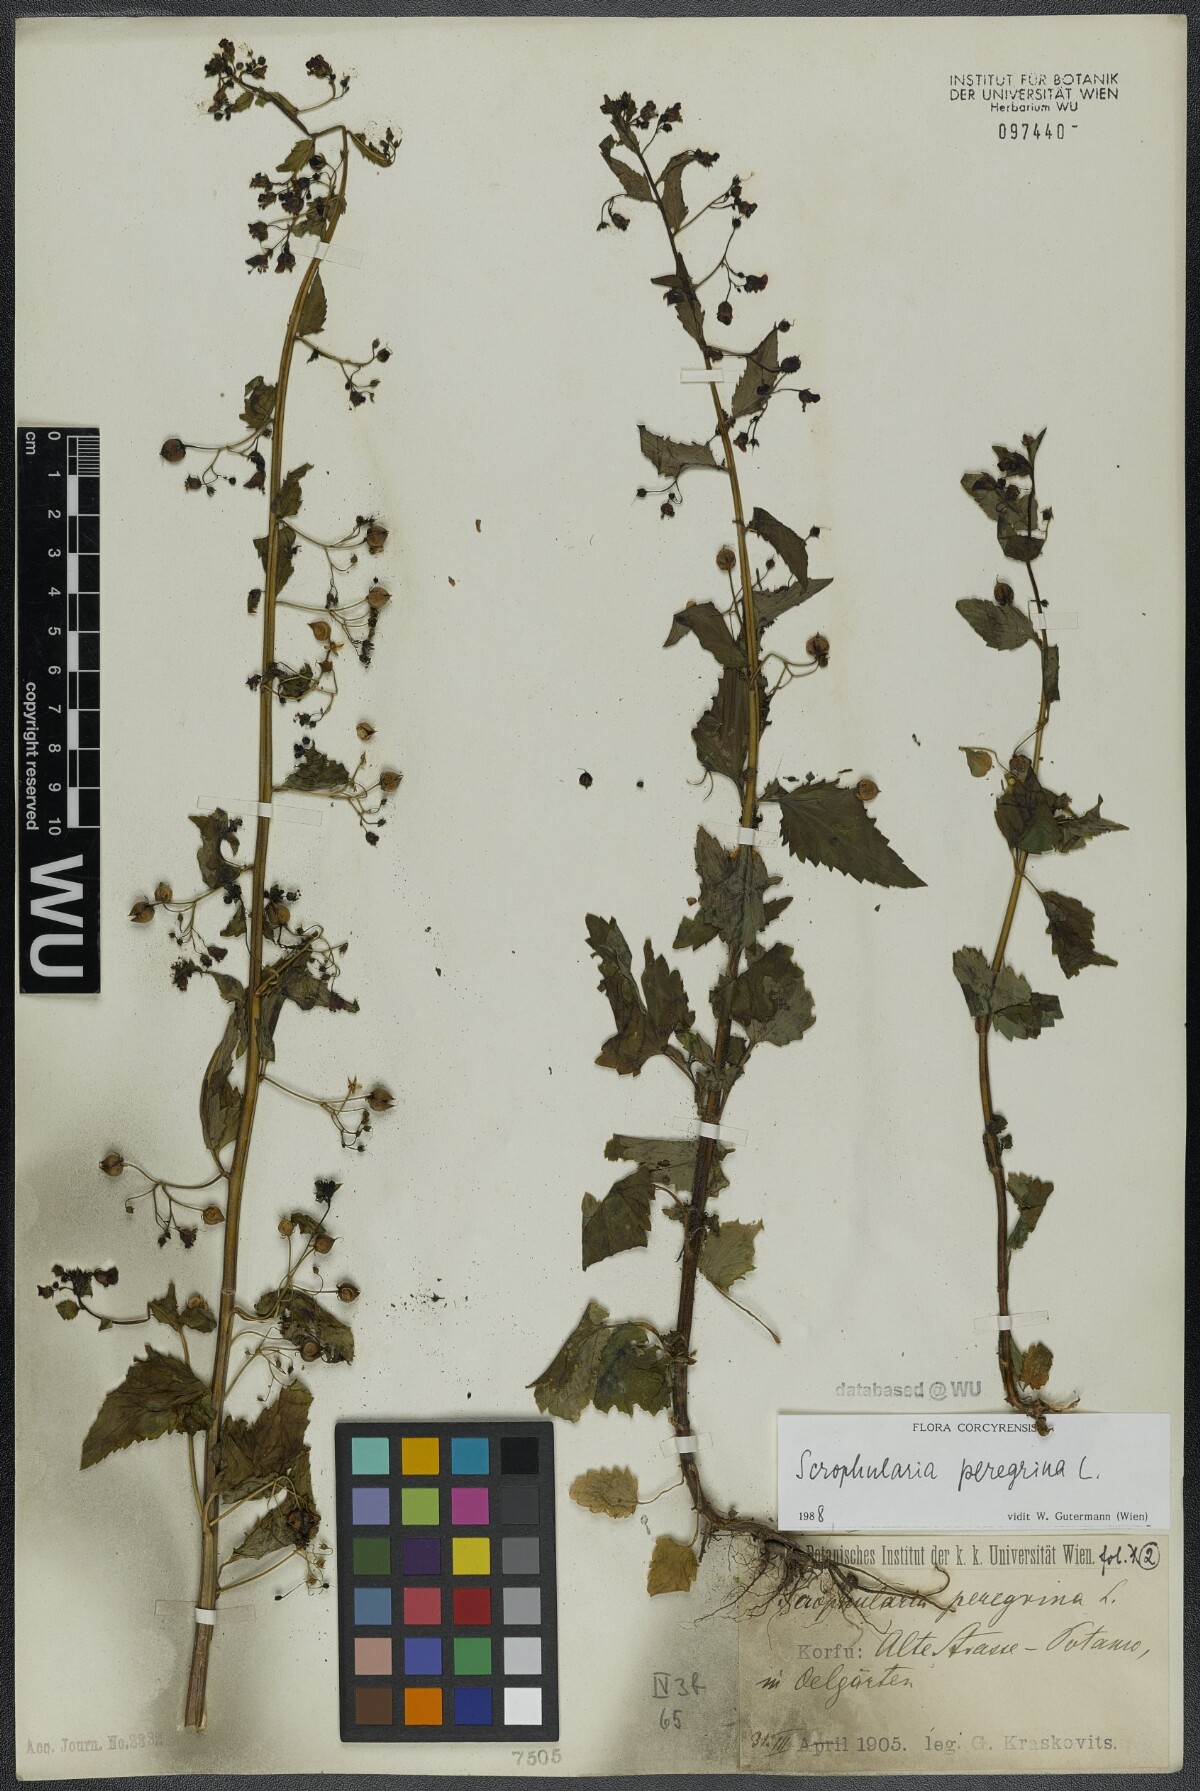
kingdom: Plantae
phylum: Tracheophyta
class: Magnoliopsida
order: Lamiales
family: Scrophulariaceae
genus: Scrophularia
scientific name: Scrophularia peregrina
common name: Mediterranean figwort
